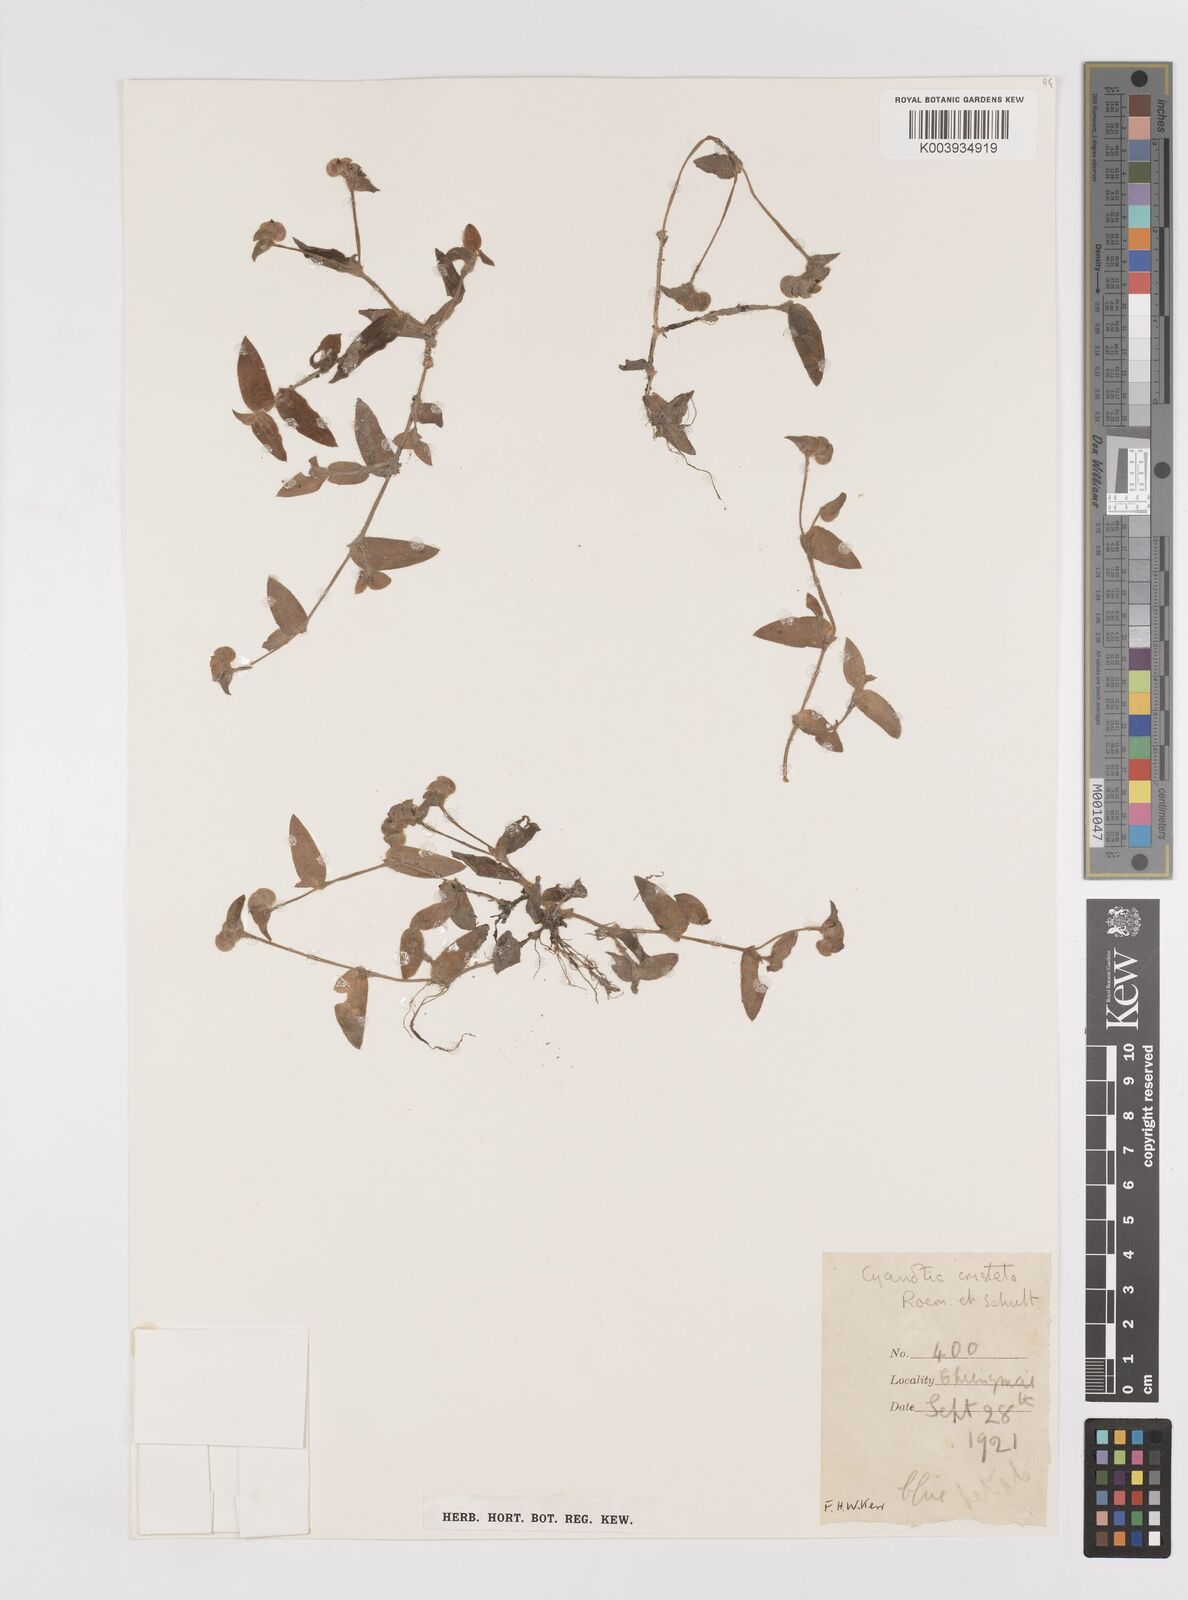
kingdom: Plantae
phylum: Tracheophyta
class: Liliopsida
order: Commelinales
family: Commelinaceae
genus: Cyanotis
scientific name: Cyanotis cristata
